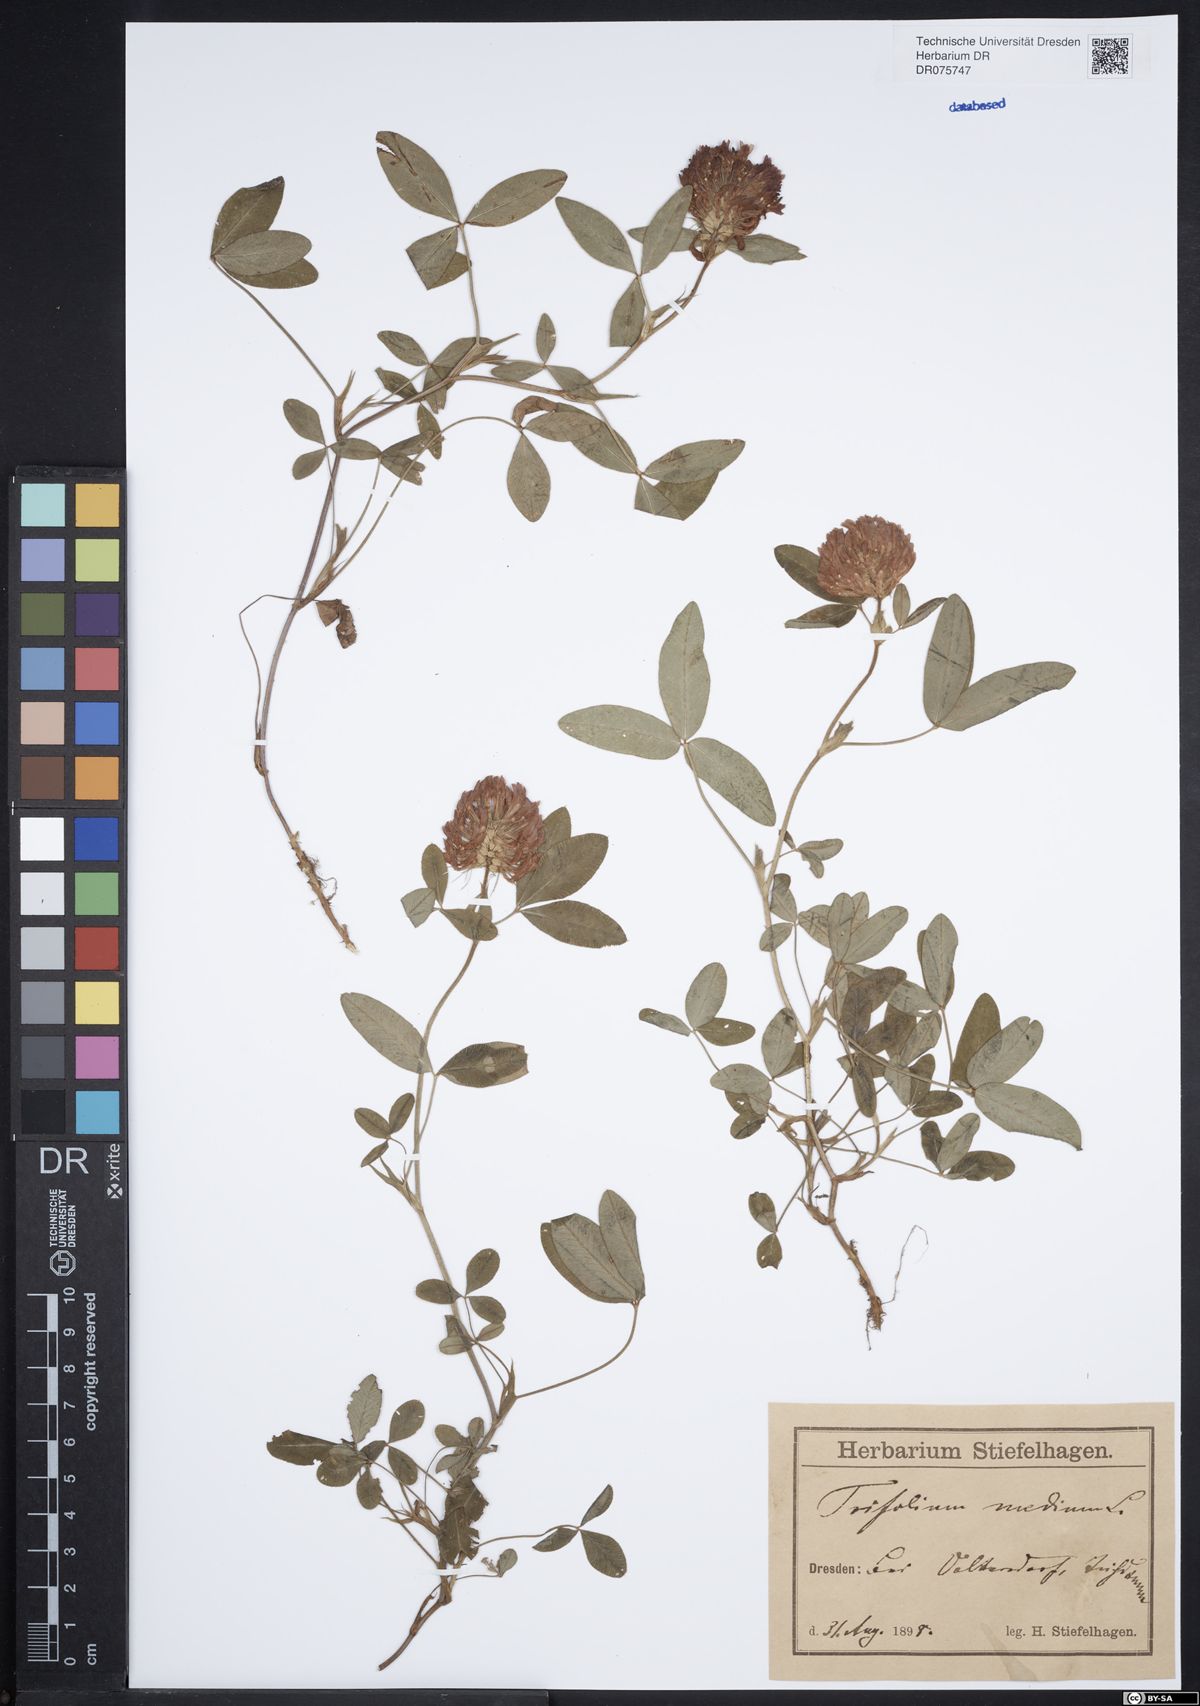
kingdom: Plantae
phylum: Tracheophyta
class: Magnoliopsida
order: Fabales
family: Fabaceae
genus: Trifolium
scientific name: Trifolium medium
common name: Zigzag clover
